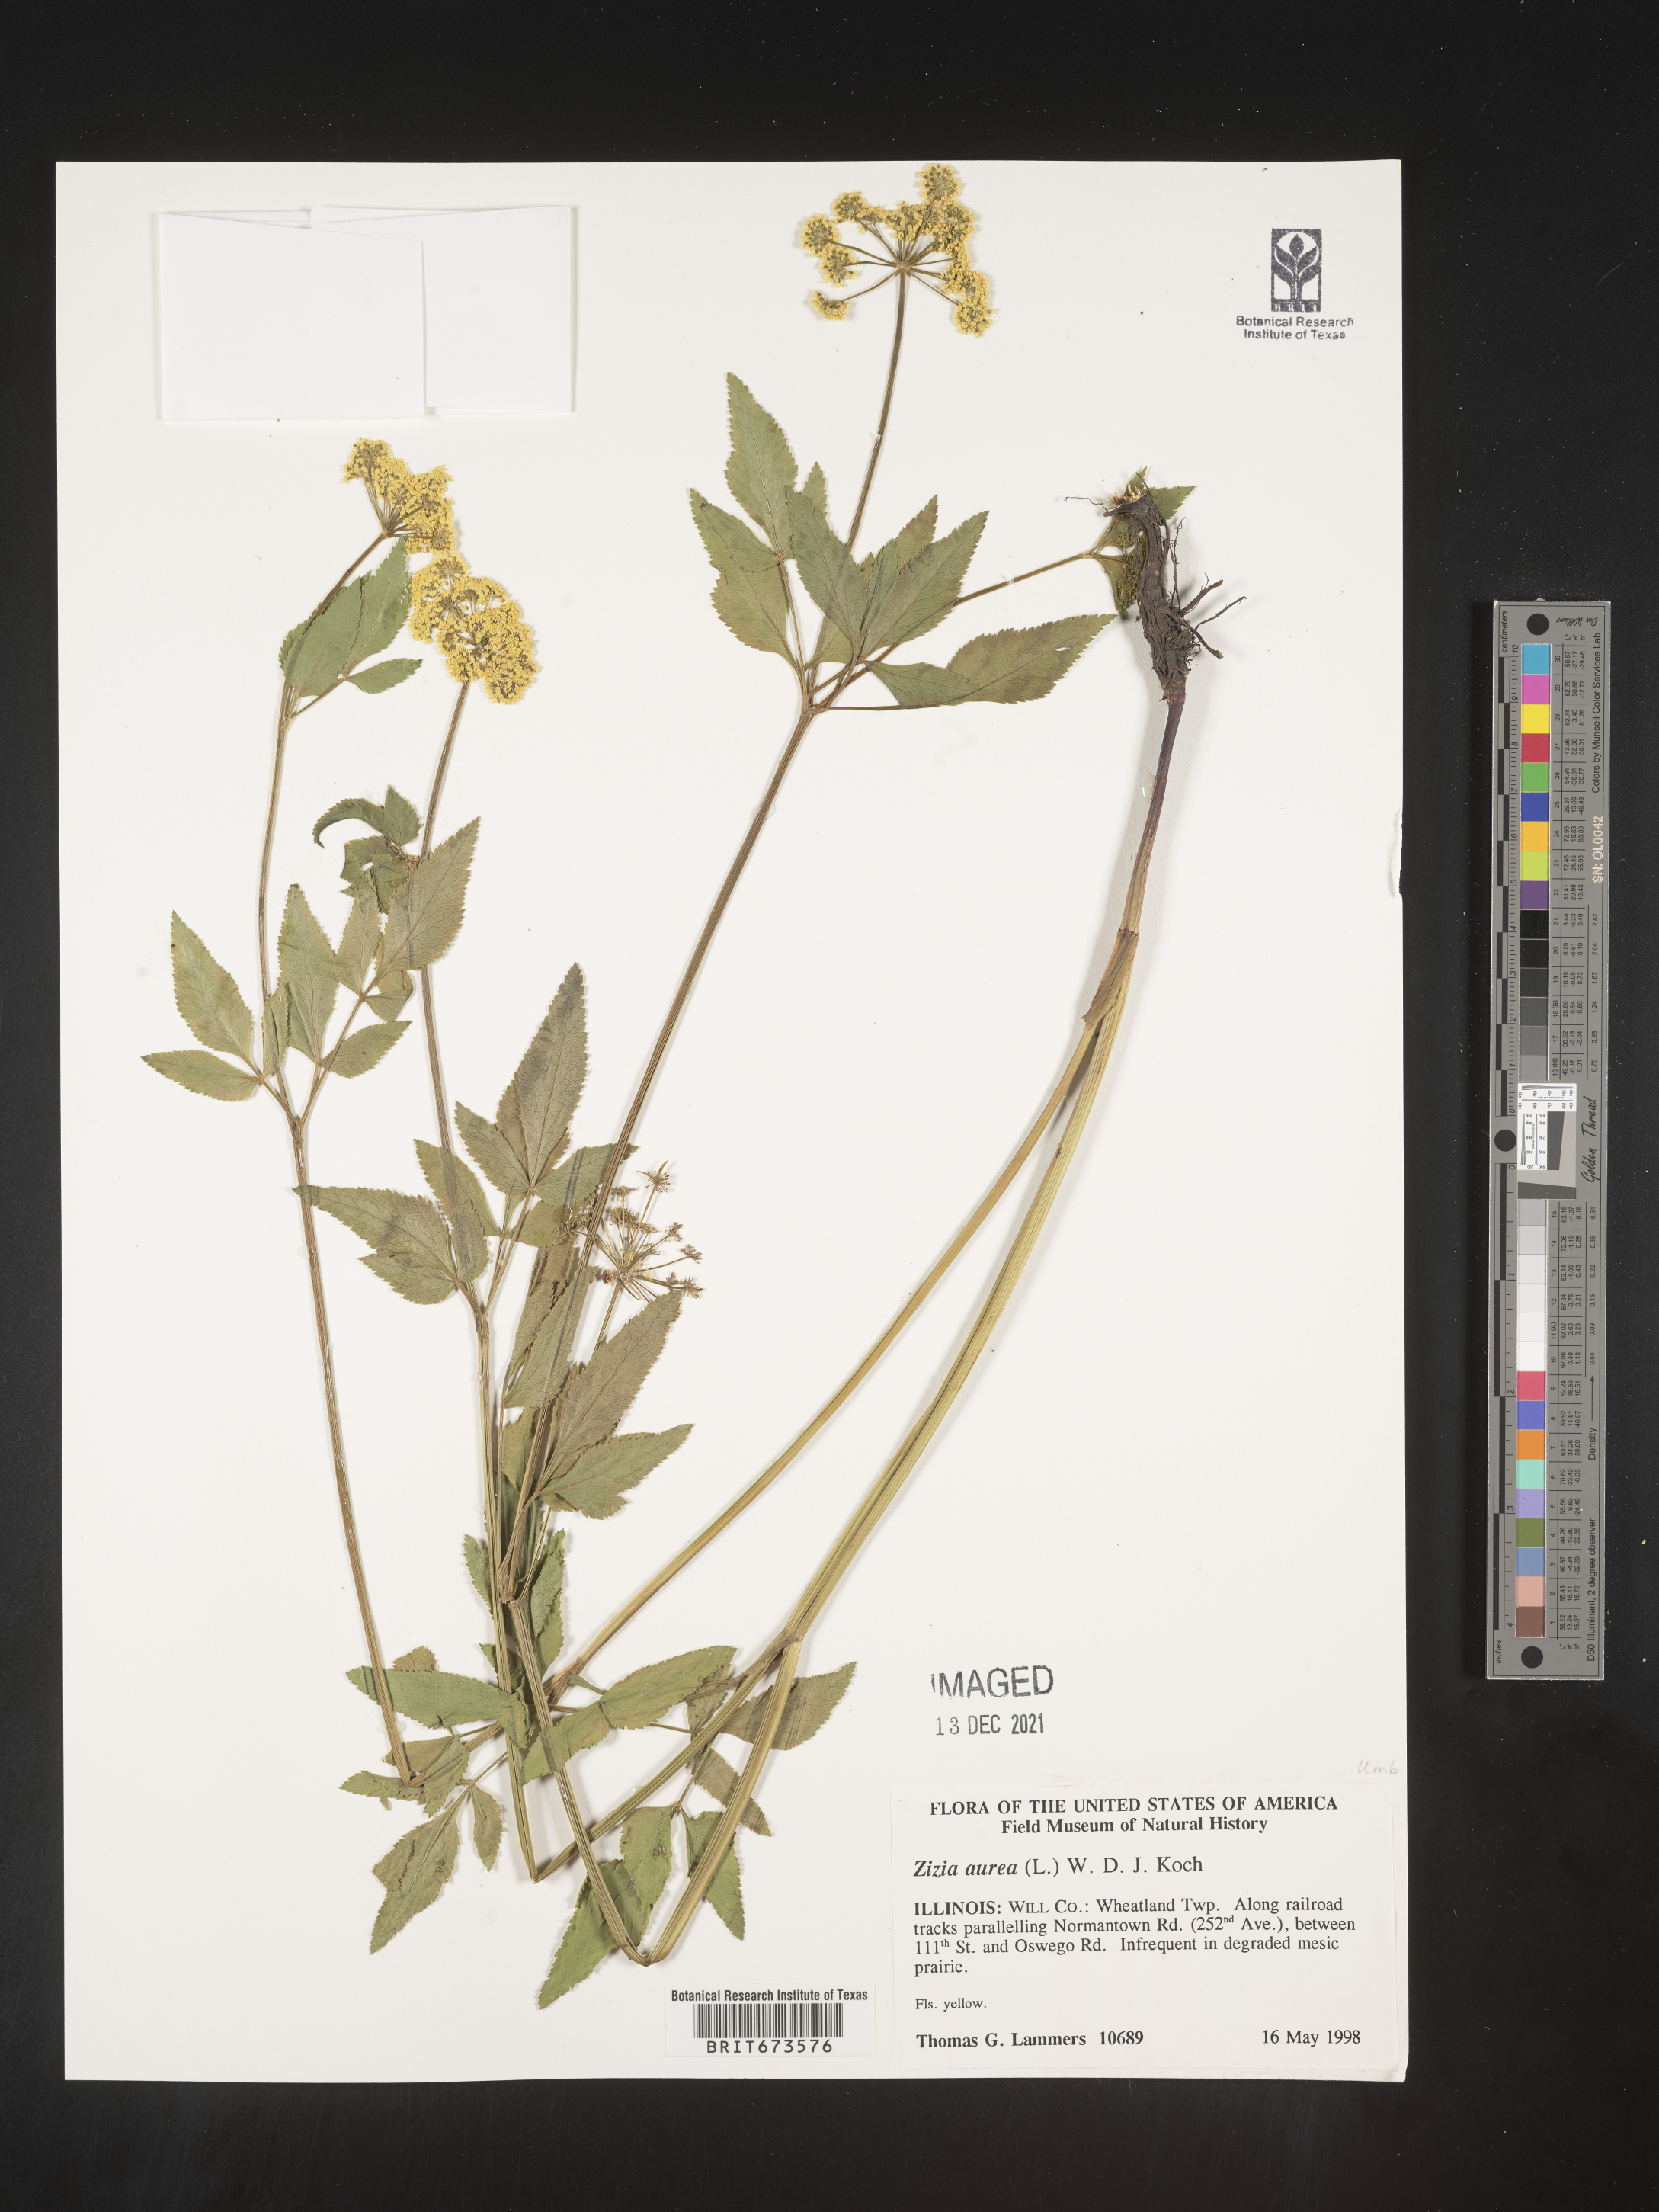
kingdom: Plantae
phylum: Tracheophyta
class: Magnoliopsida
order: Apiales
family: Apiaceae
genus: Zizia
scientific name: Zizia aurea
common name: Golden alexanders
